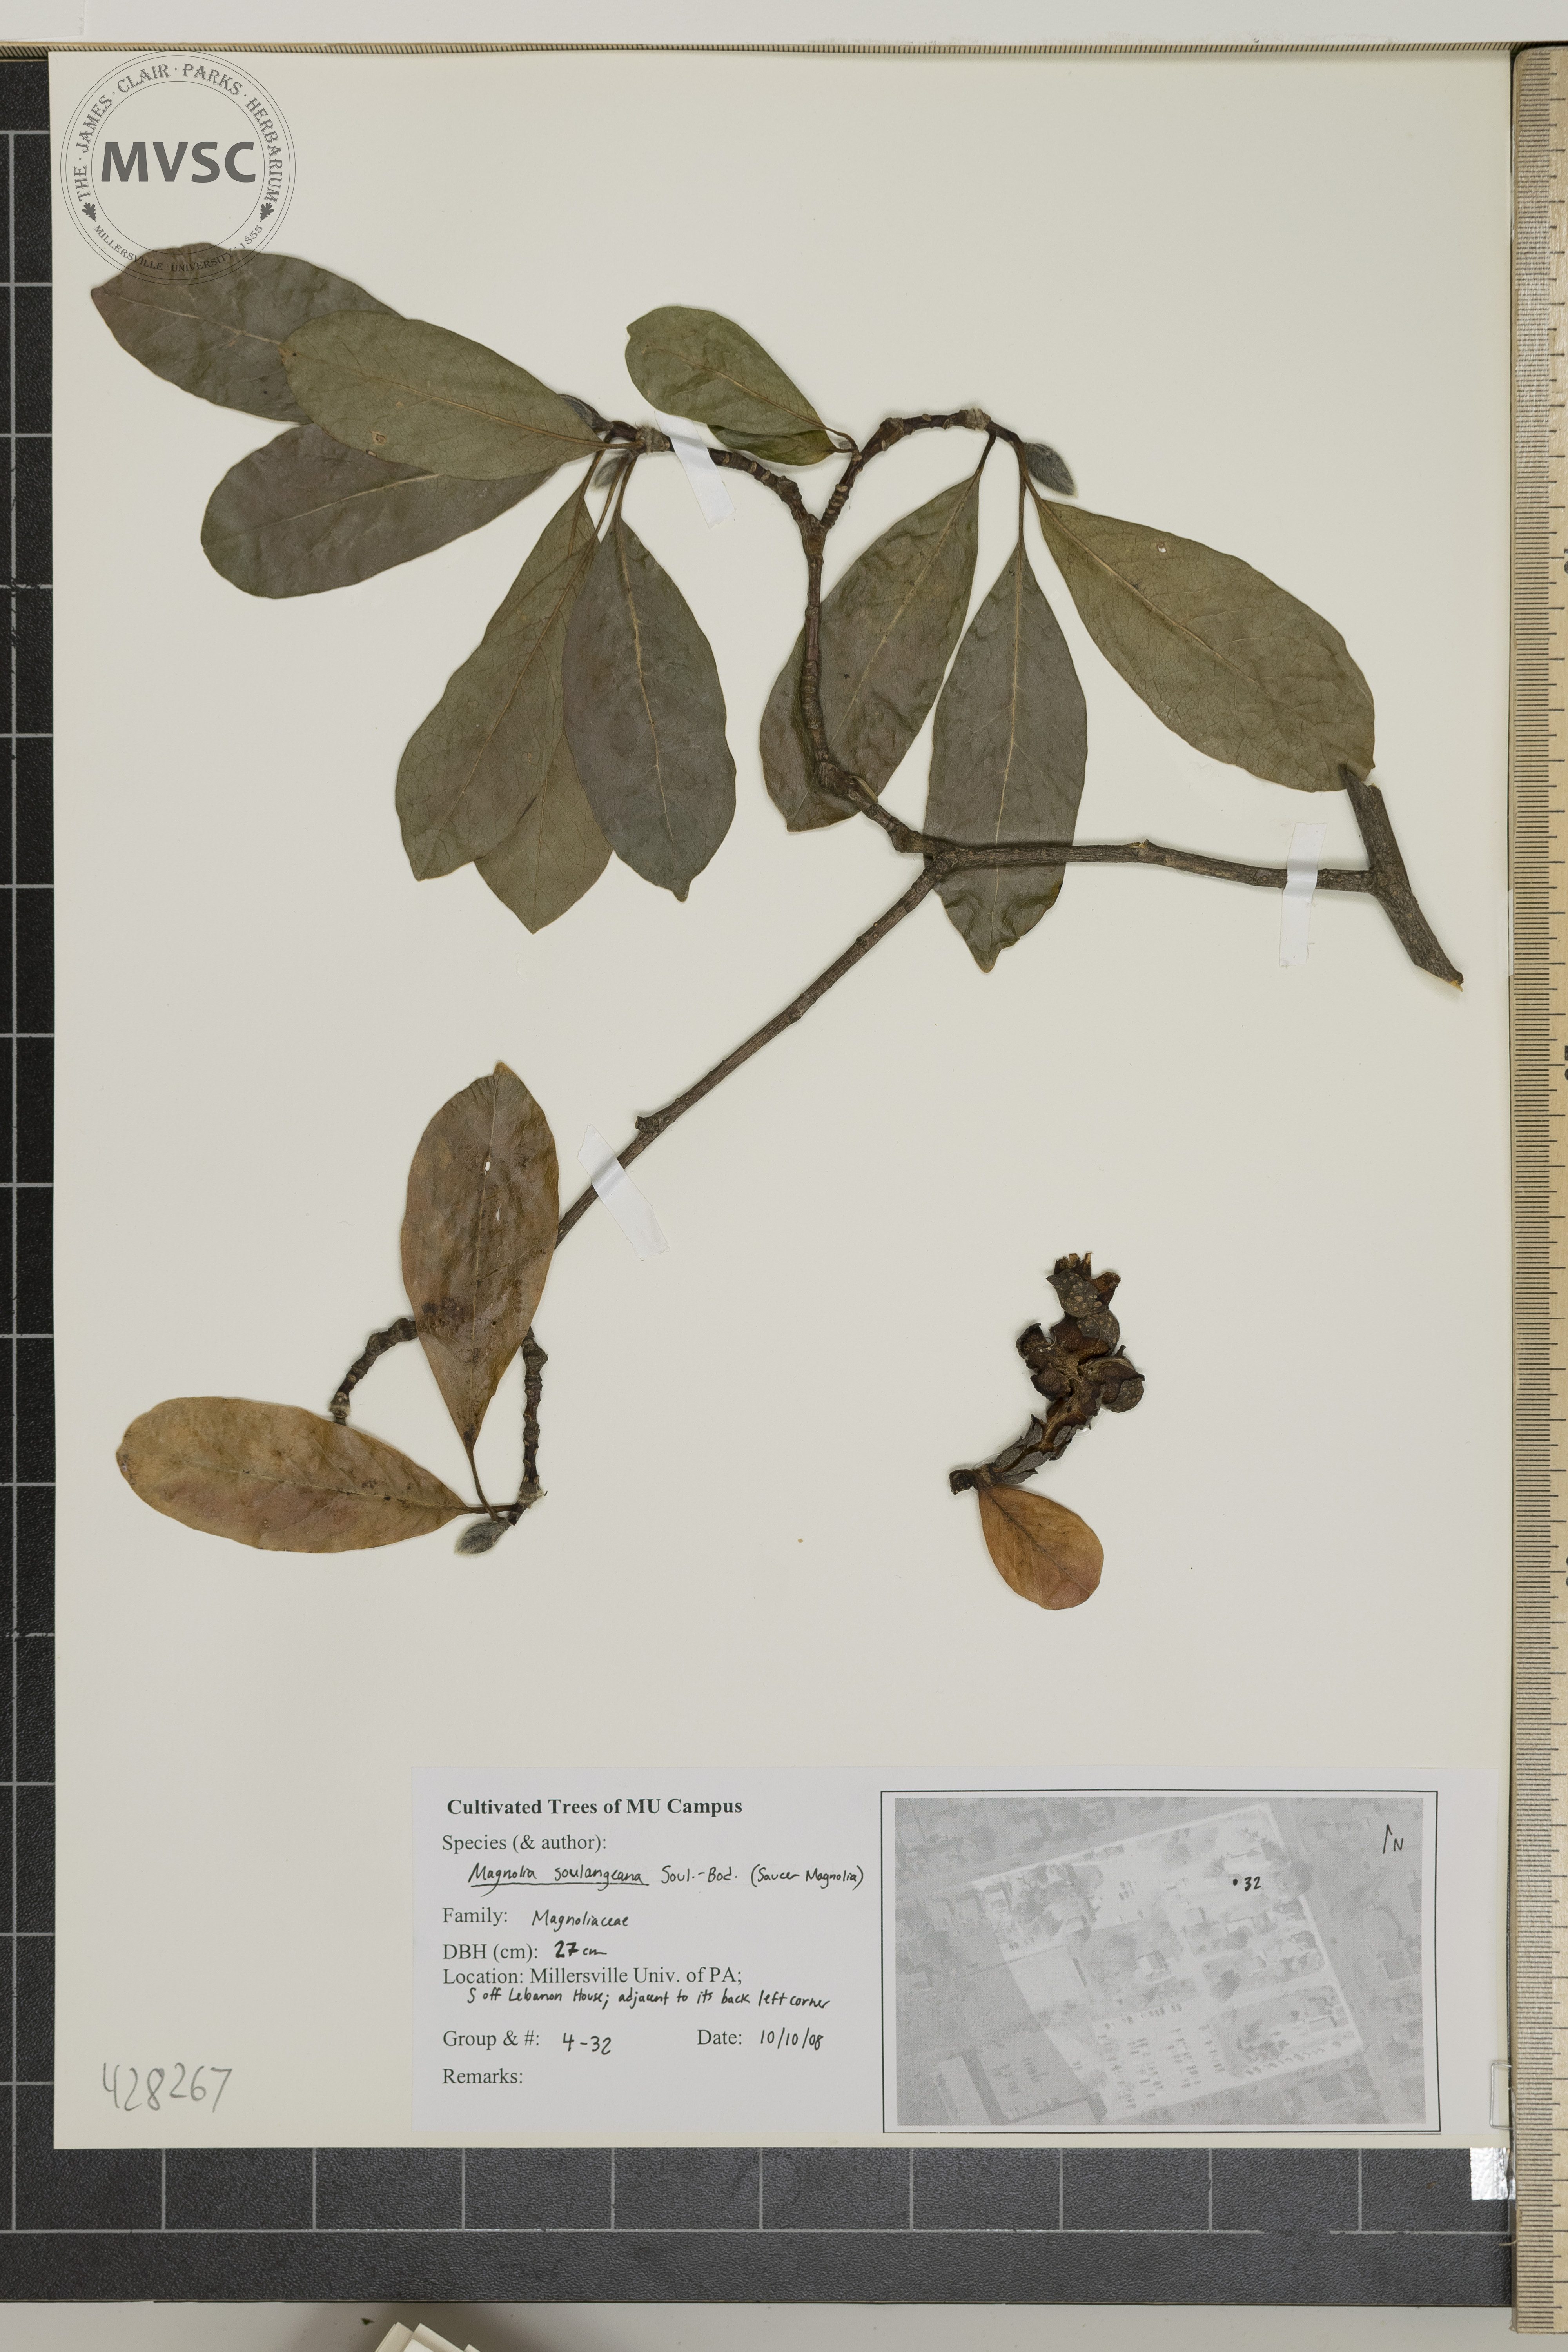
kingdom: Plantae
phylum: Tracheophyta
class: Magnoliopsida
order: Magnoliales
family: Magnoliaceae
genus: Magnolia
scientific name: Magnolia soulangeana
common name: Saucer Magnolia
